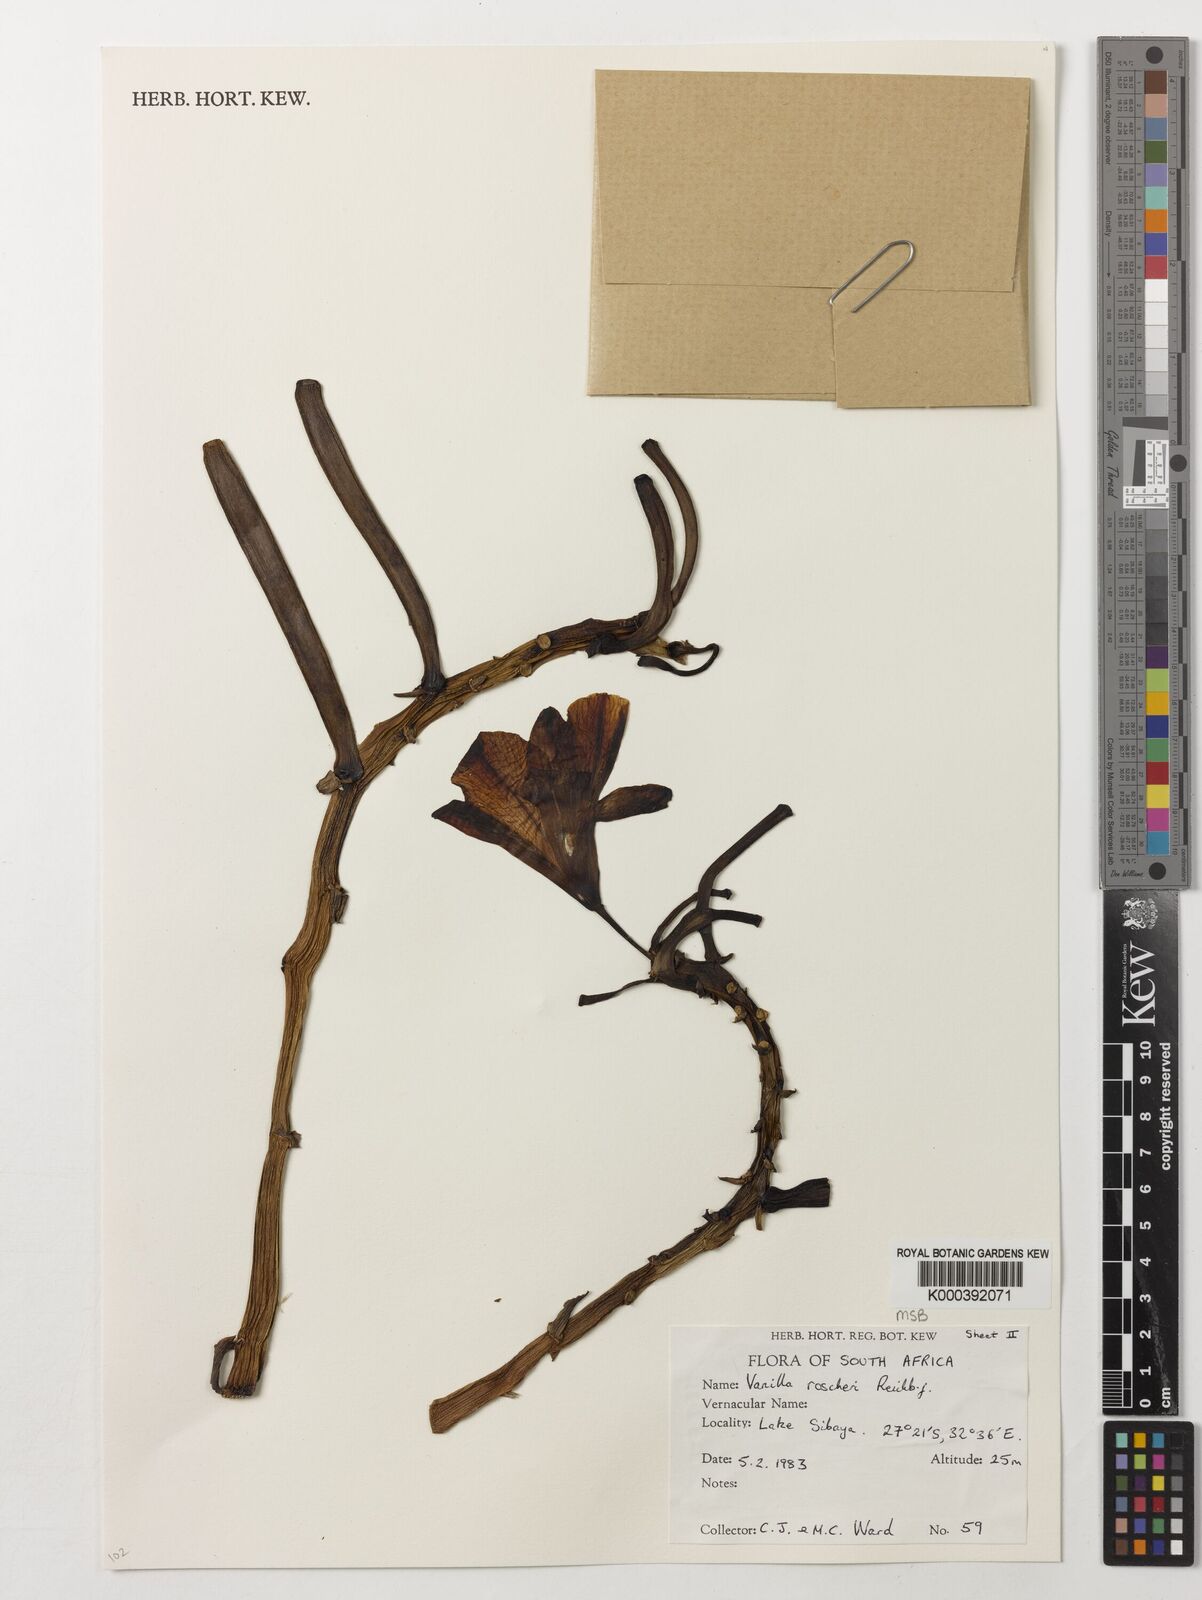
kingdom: Plantae
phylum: Tracheophyta
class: Liliopsida
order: Asparagales
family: Orchidaceae
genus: Vanilla
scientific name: Vanilla roscheri
